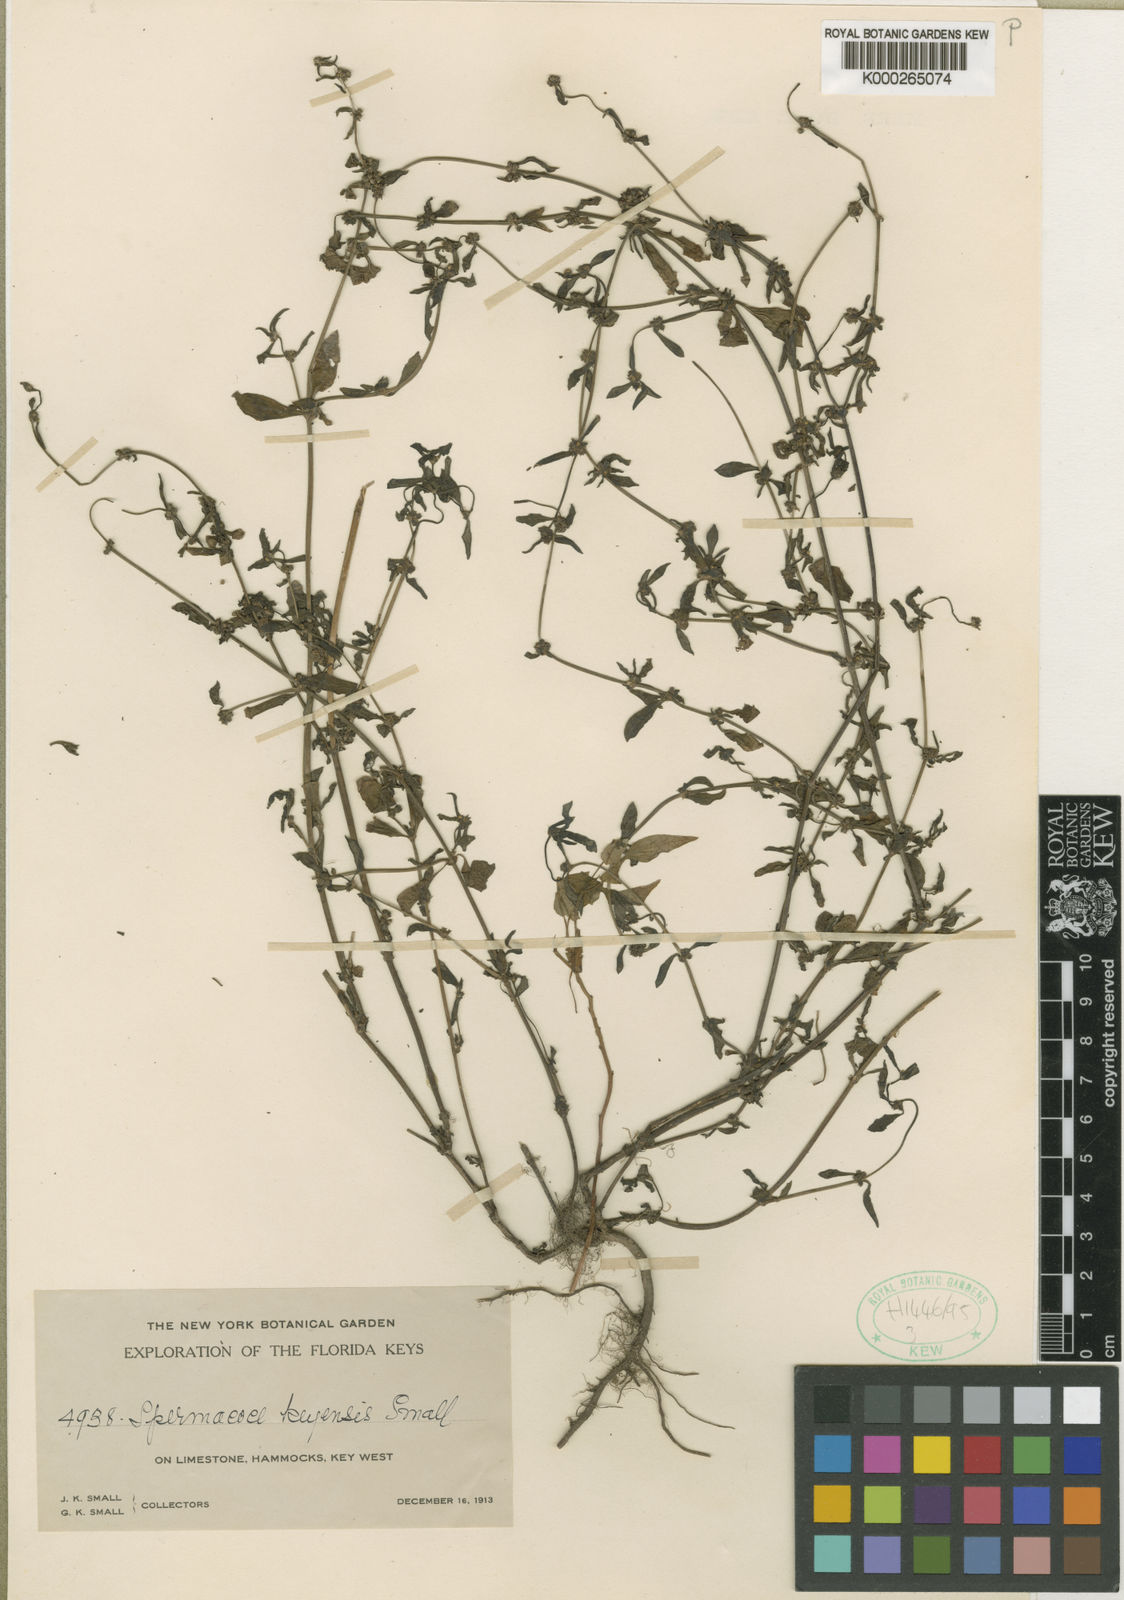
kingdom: Plantae
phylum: Tracheophyta
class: Magnoliopsida
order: Gentianales
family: Rubiaceae
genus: Spermacoce
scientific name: Spermacoce keyensis
